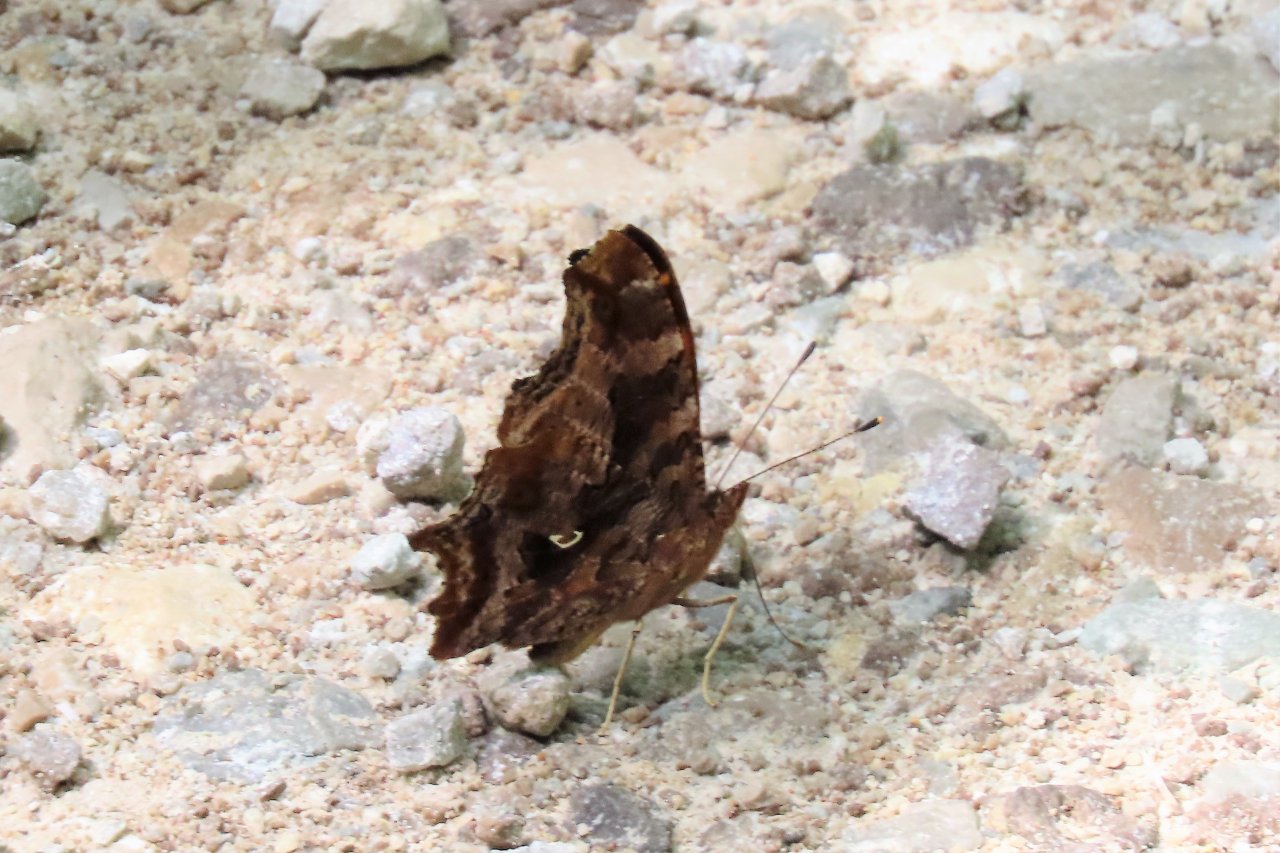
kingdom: Animalia
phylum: Arthropoda
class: Insecta
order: Lepidoptera
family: Nymphalidae
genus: Polygonia
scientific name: Polygonia comma
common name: Eastern Comma
